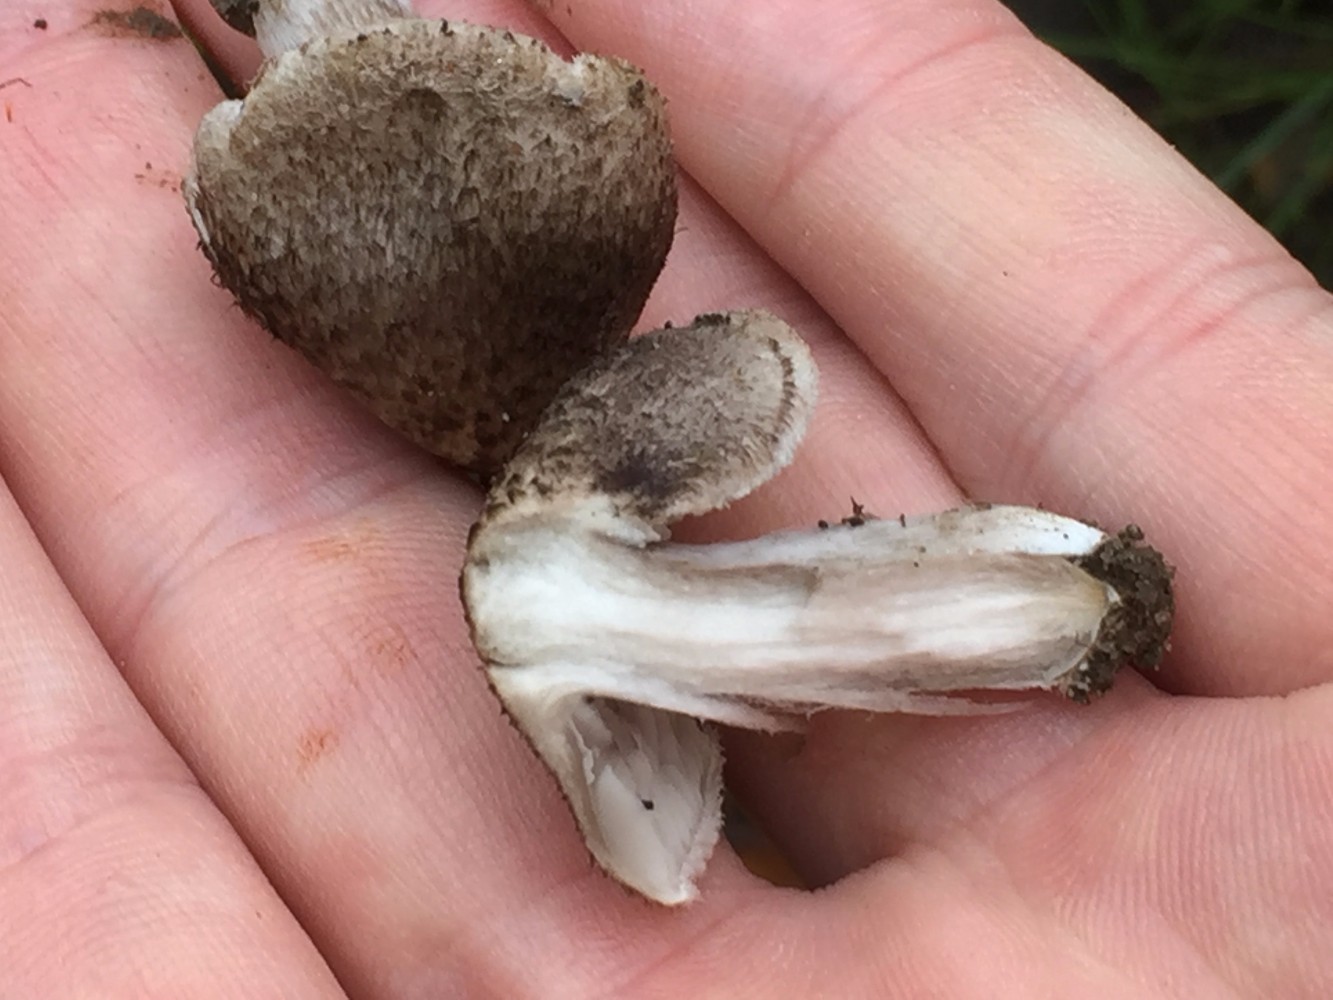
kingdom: Fungi
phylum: Basidiomycota
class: Agaricomycetes
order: Agaricales
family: Tricholomataceae
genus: Tricholoma
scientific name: Tricholoma scalpturatum
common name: gulplettet ridderhat
